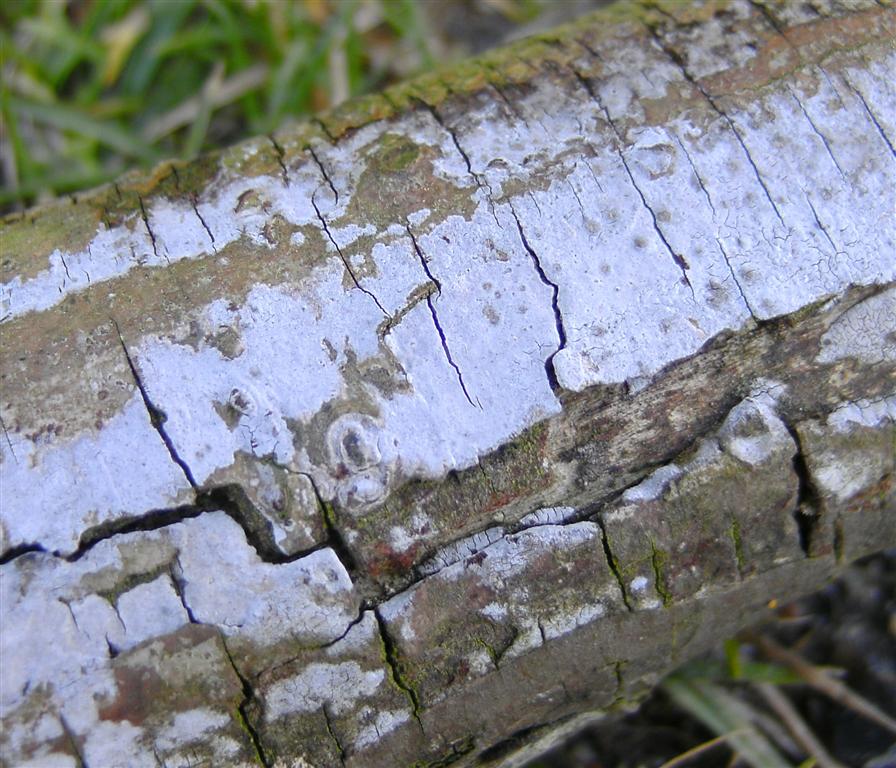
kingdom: Fungi
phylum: Basidiomycota
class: Agaricomycetes
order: Russulales
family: Peniophoraceae
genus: Peniophora
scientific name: Peniophora lycii
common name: grynet voksskind
